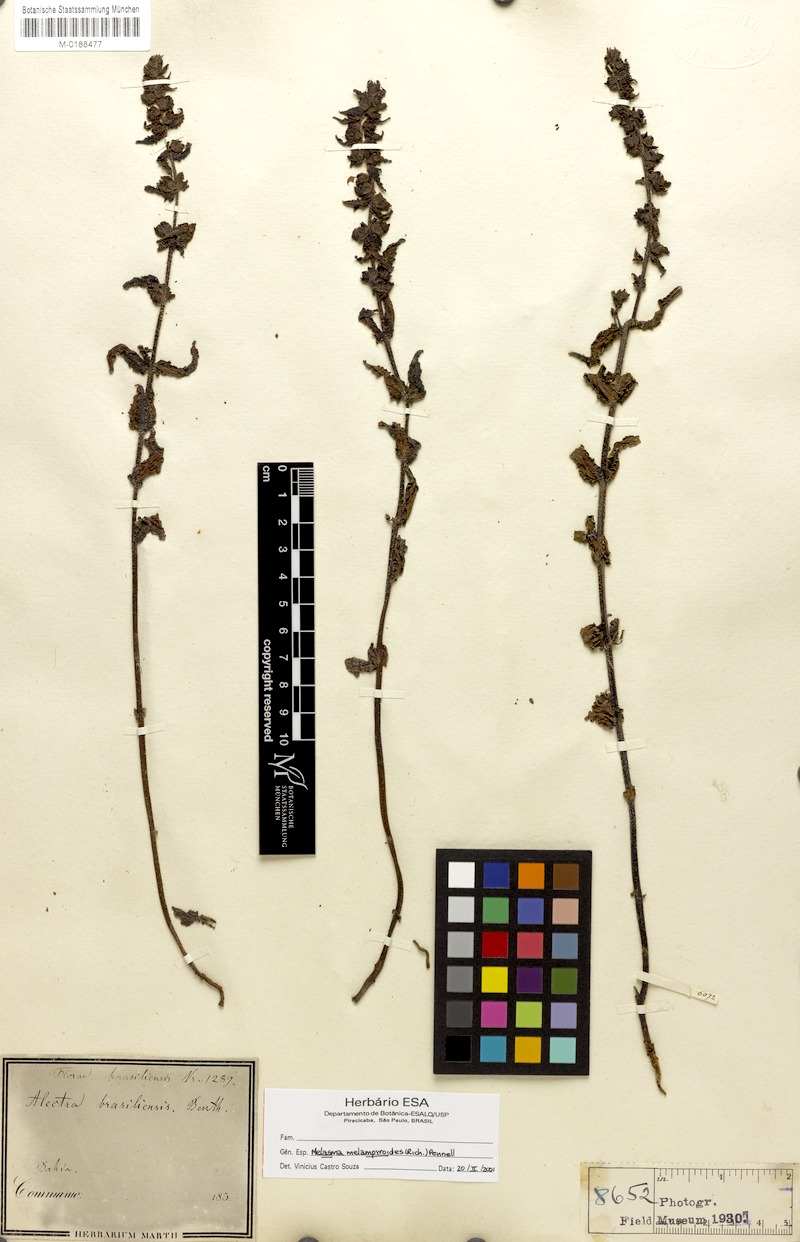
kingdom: Plantae
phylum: Tracheophyta
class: Magnoliopsida
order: Lamiales
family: Orobanchaceae
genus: Melasma
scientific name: Melasma melampyroides
